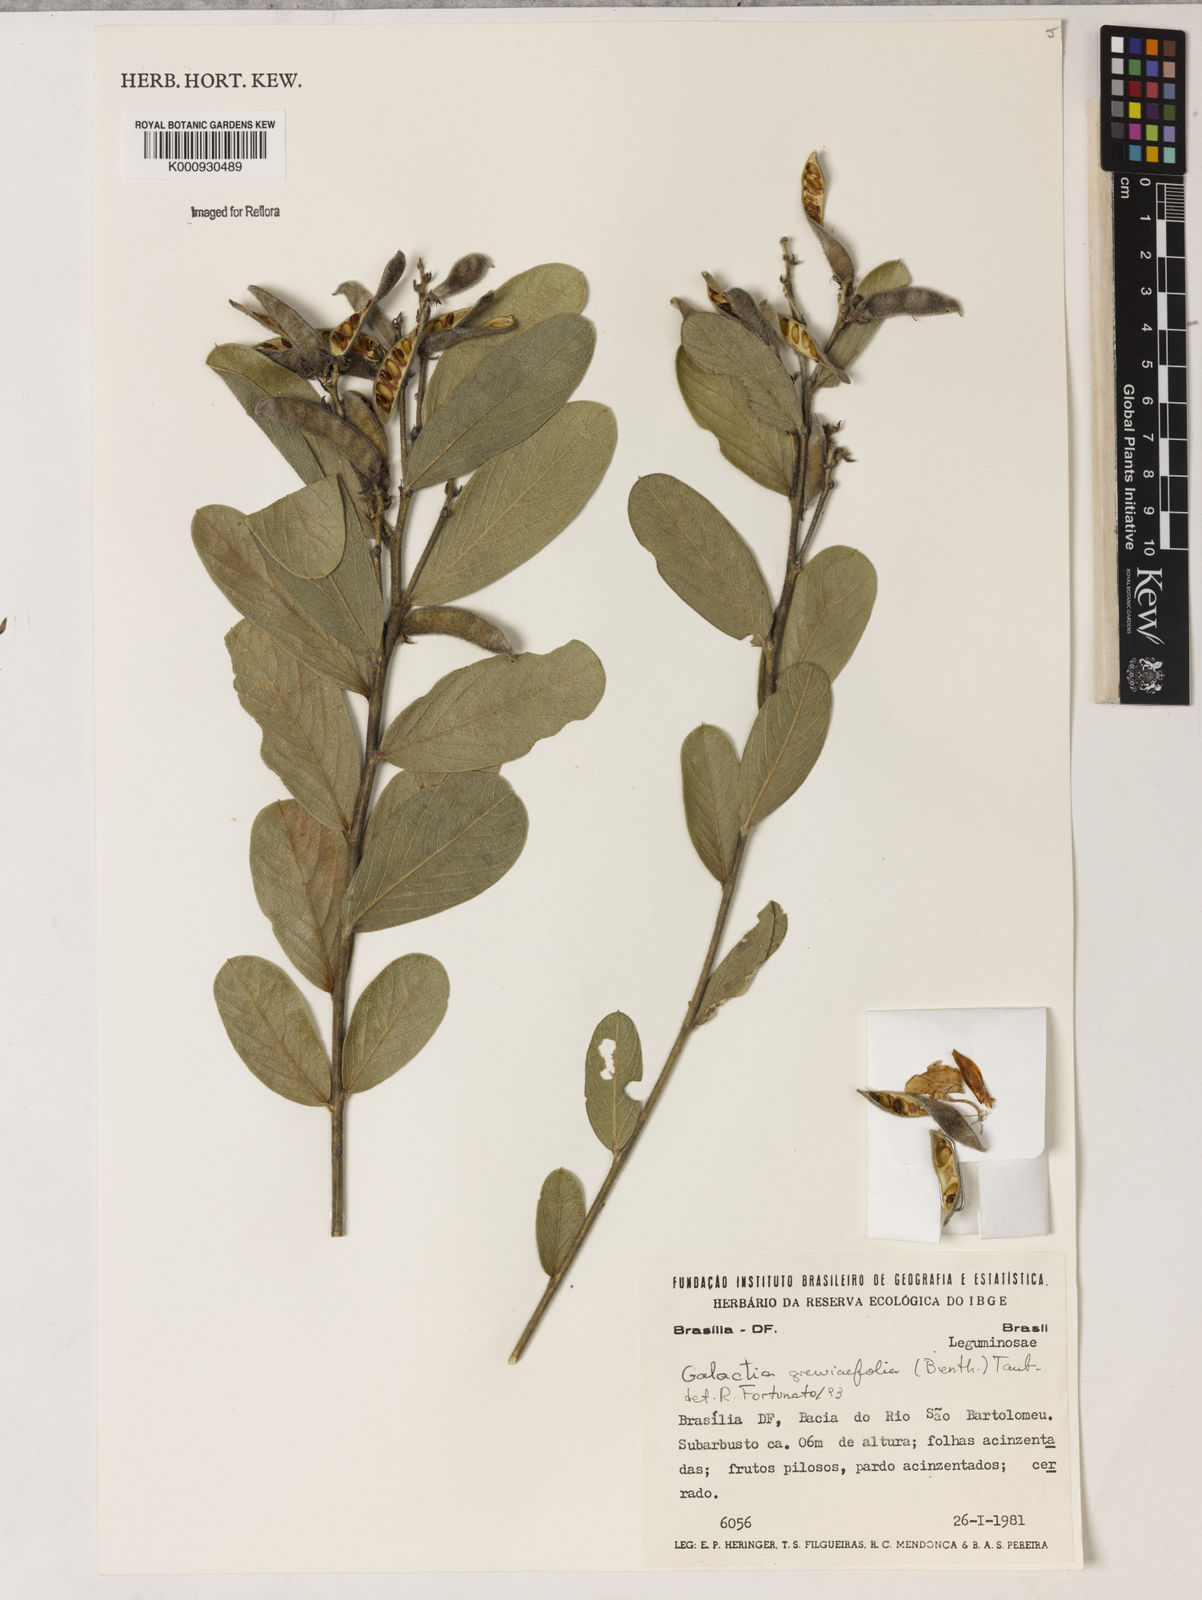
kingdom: Plantae
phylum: Tracheophyta
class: Magnoliopsida
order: Fabales
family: Fabaceae
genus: Galactia
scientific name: Galactia
